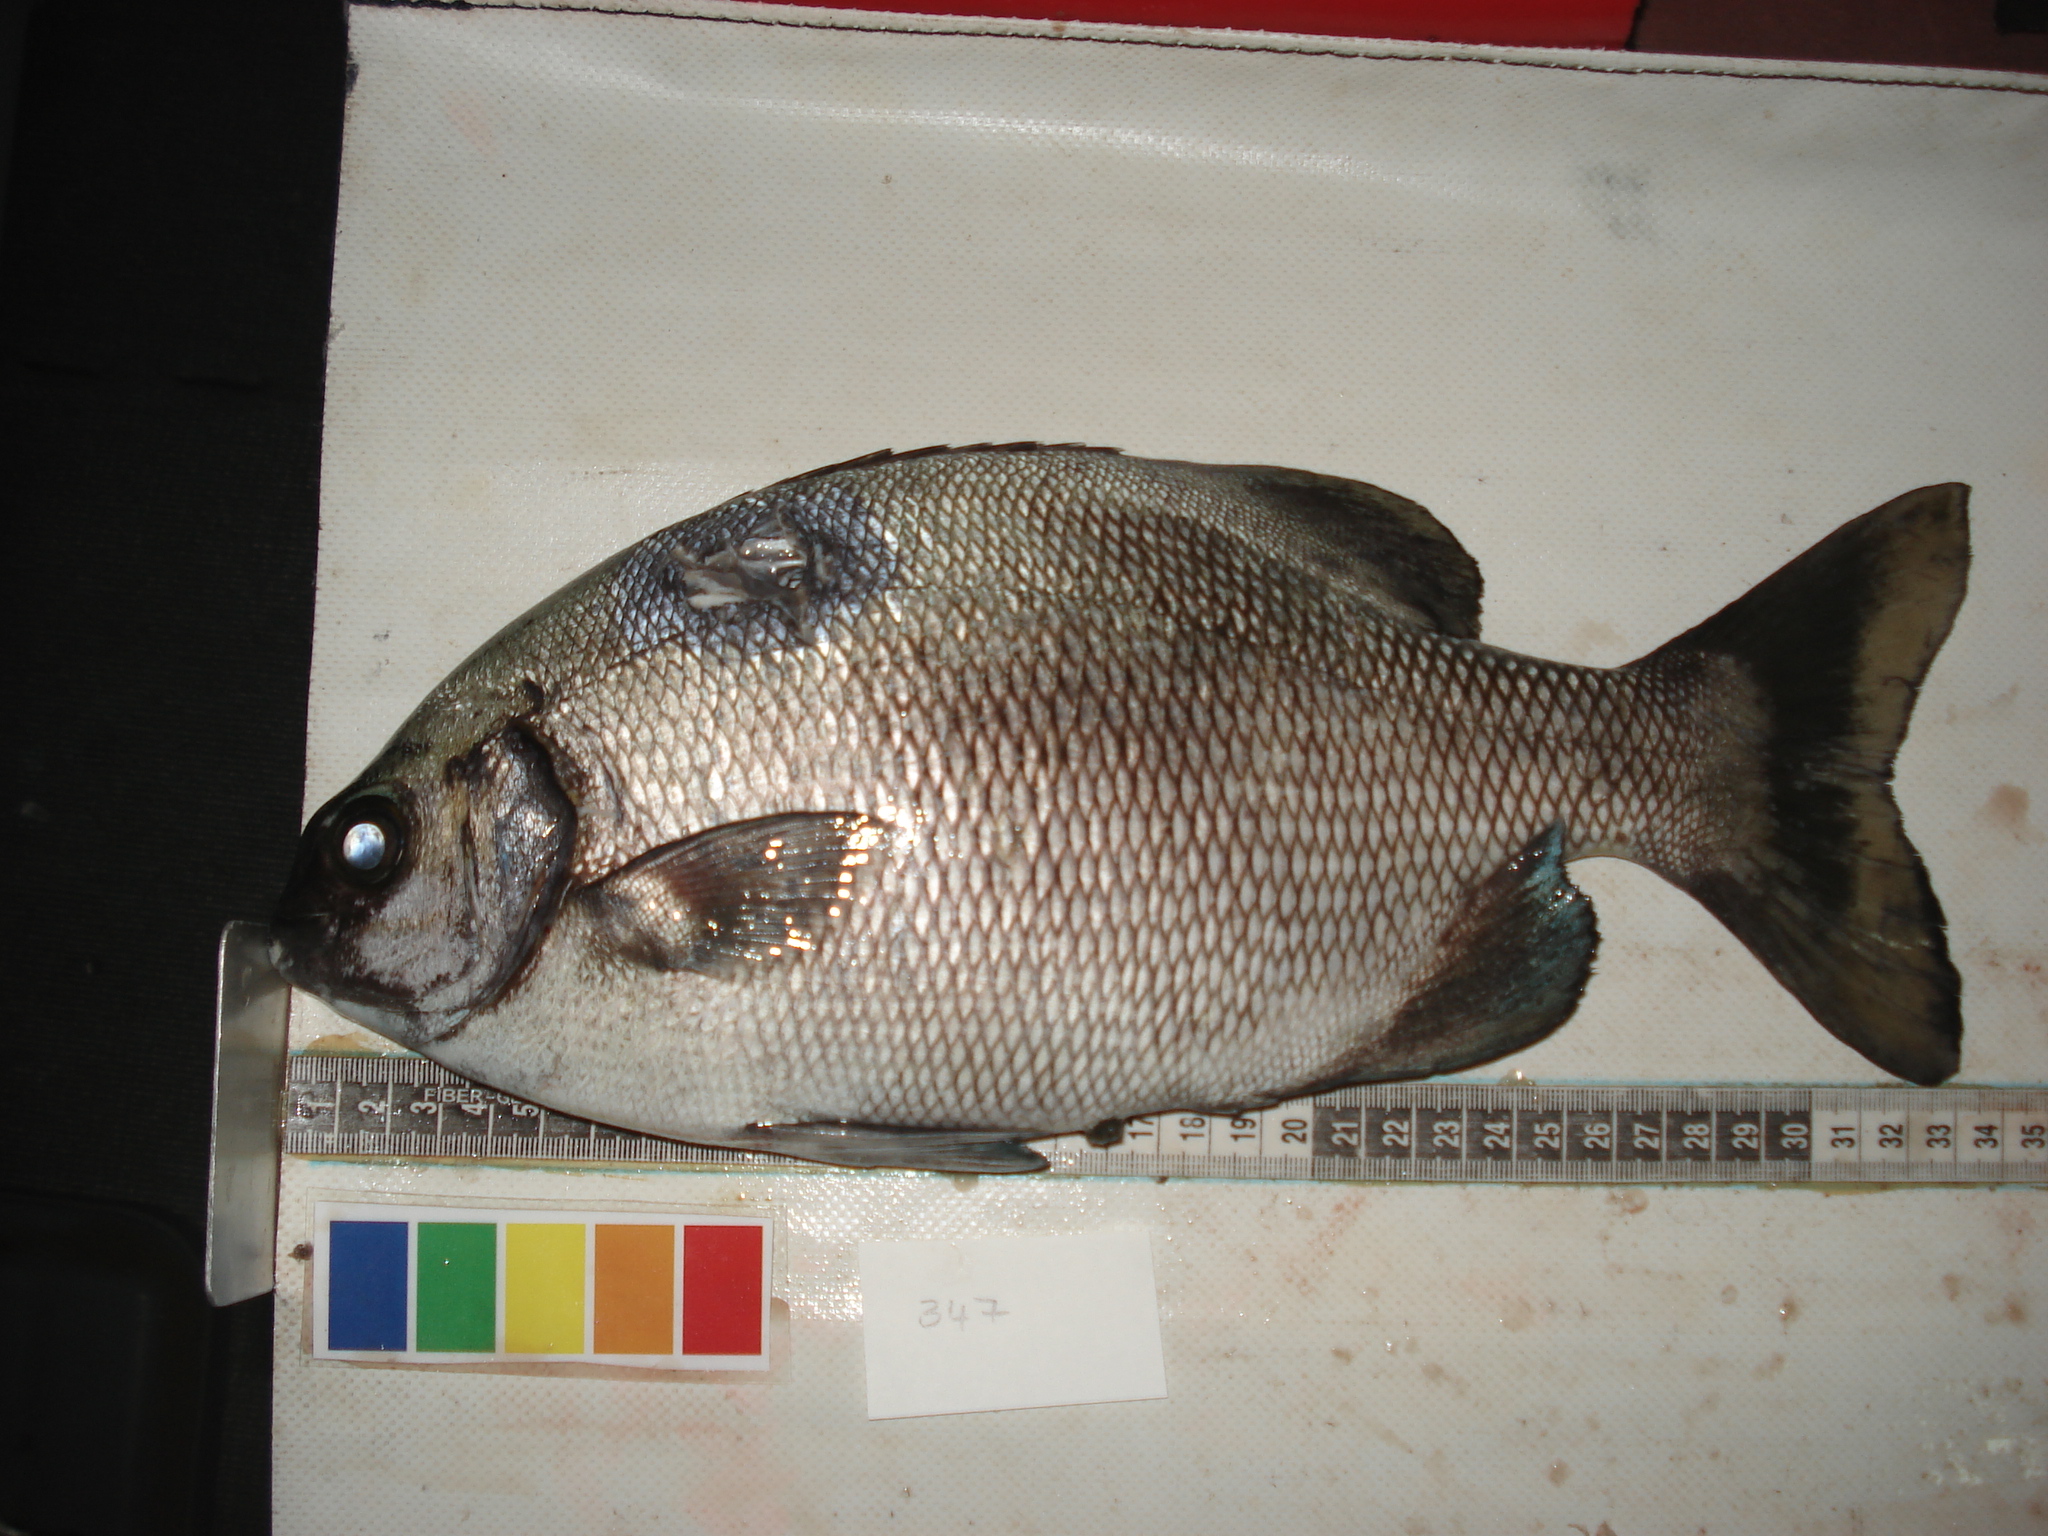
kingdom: Animalia
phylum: Chordata
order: Perciformes
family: Kyphosidae
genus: Kyphosus
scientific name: Kyphosus cinerascens
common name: Topsail drummer
